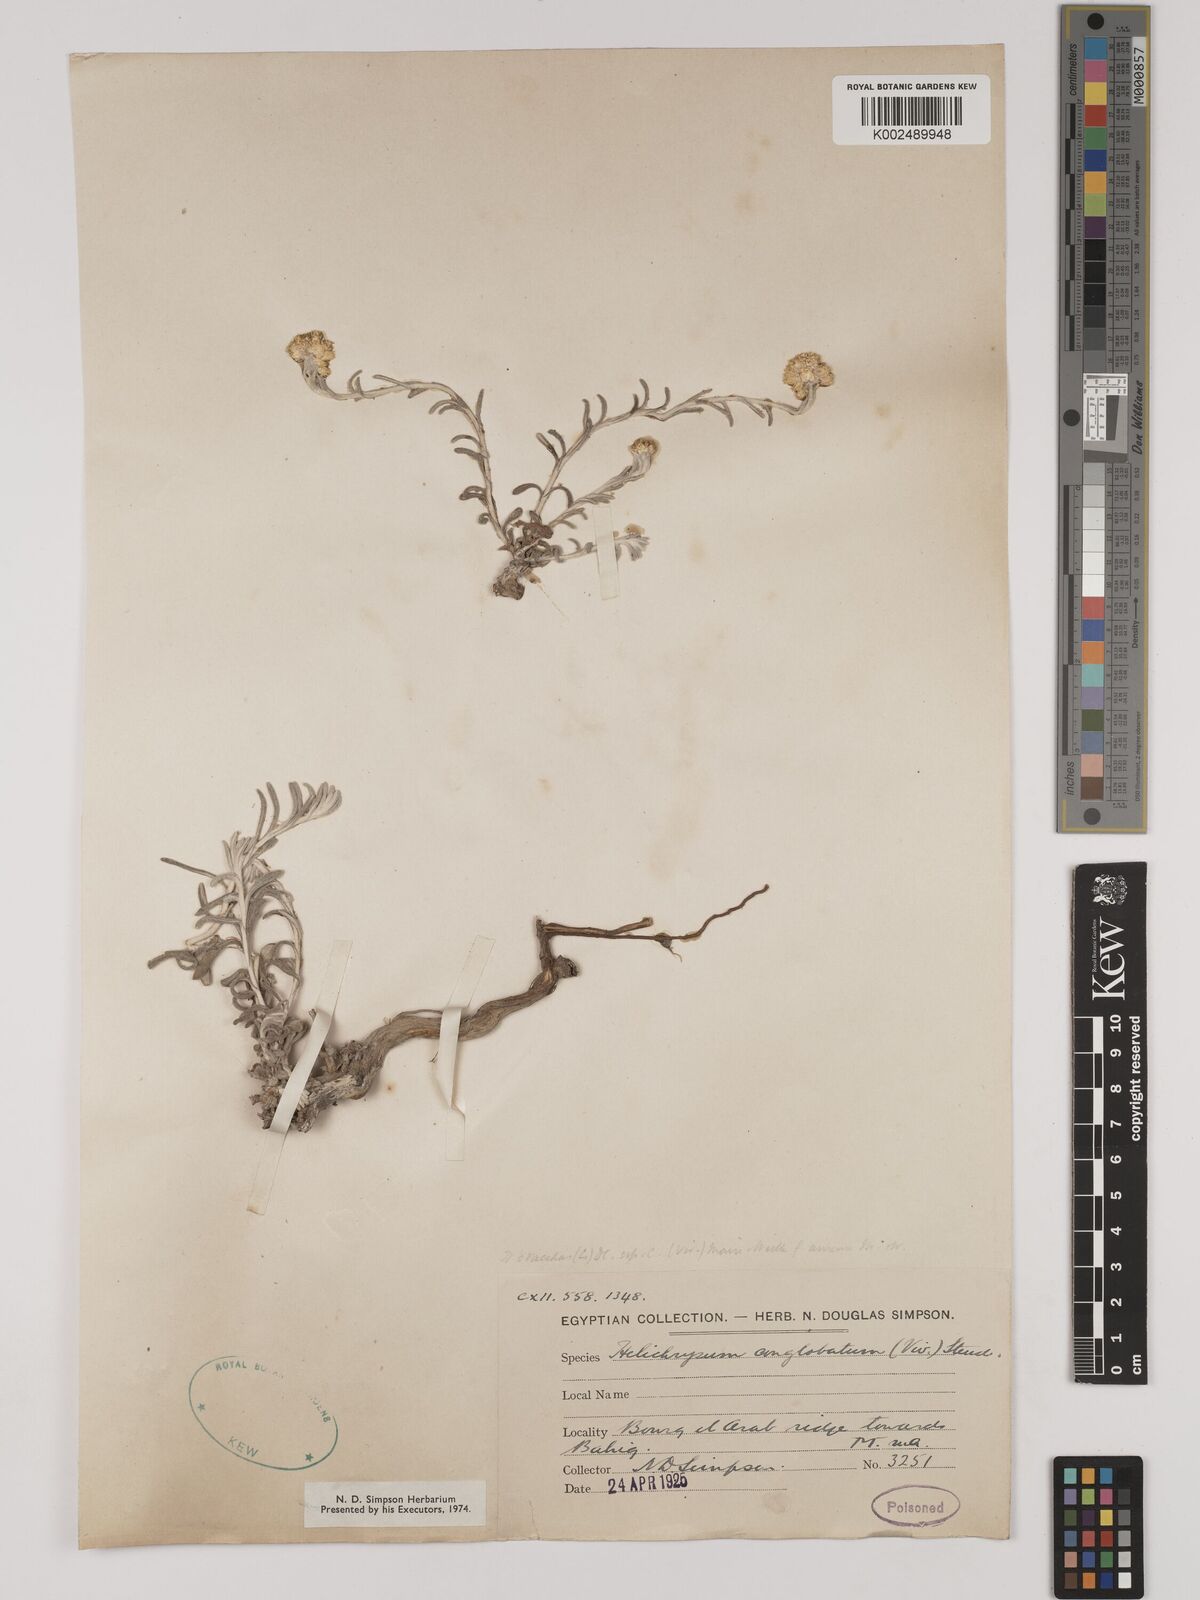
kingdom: Plantae
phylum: Tracheophyta
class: Magnoliopsida
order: Asterales
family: Asteraceae
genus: Helichrysum
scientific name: Helichrysum stoechas
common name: Goldilocks
